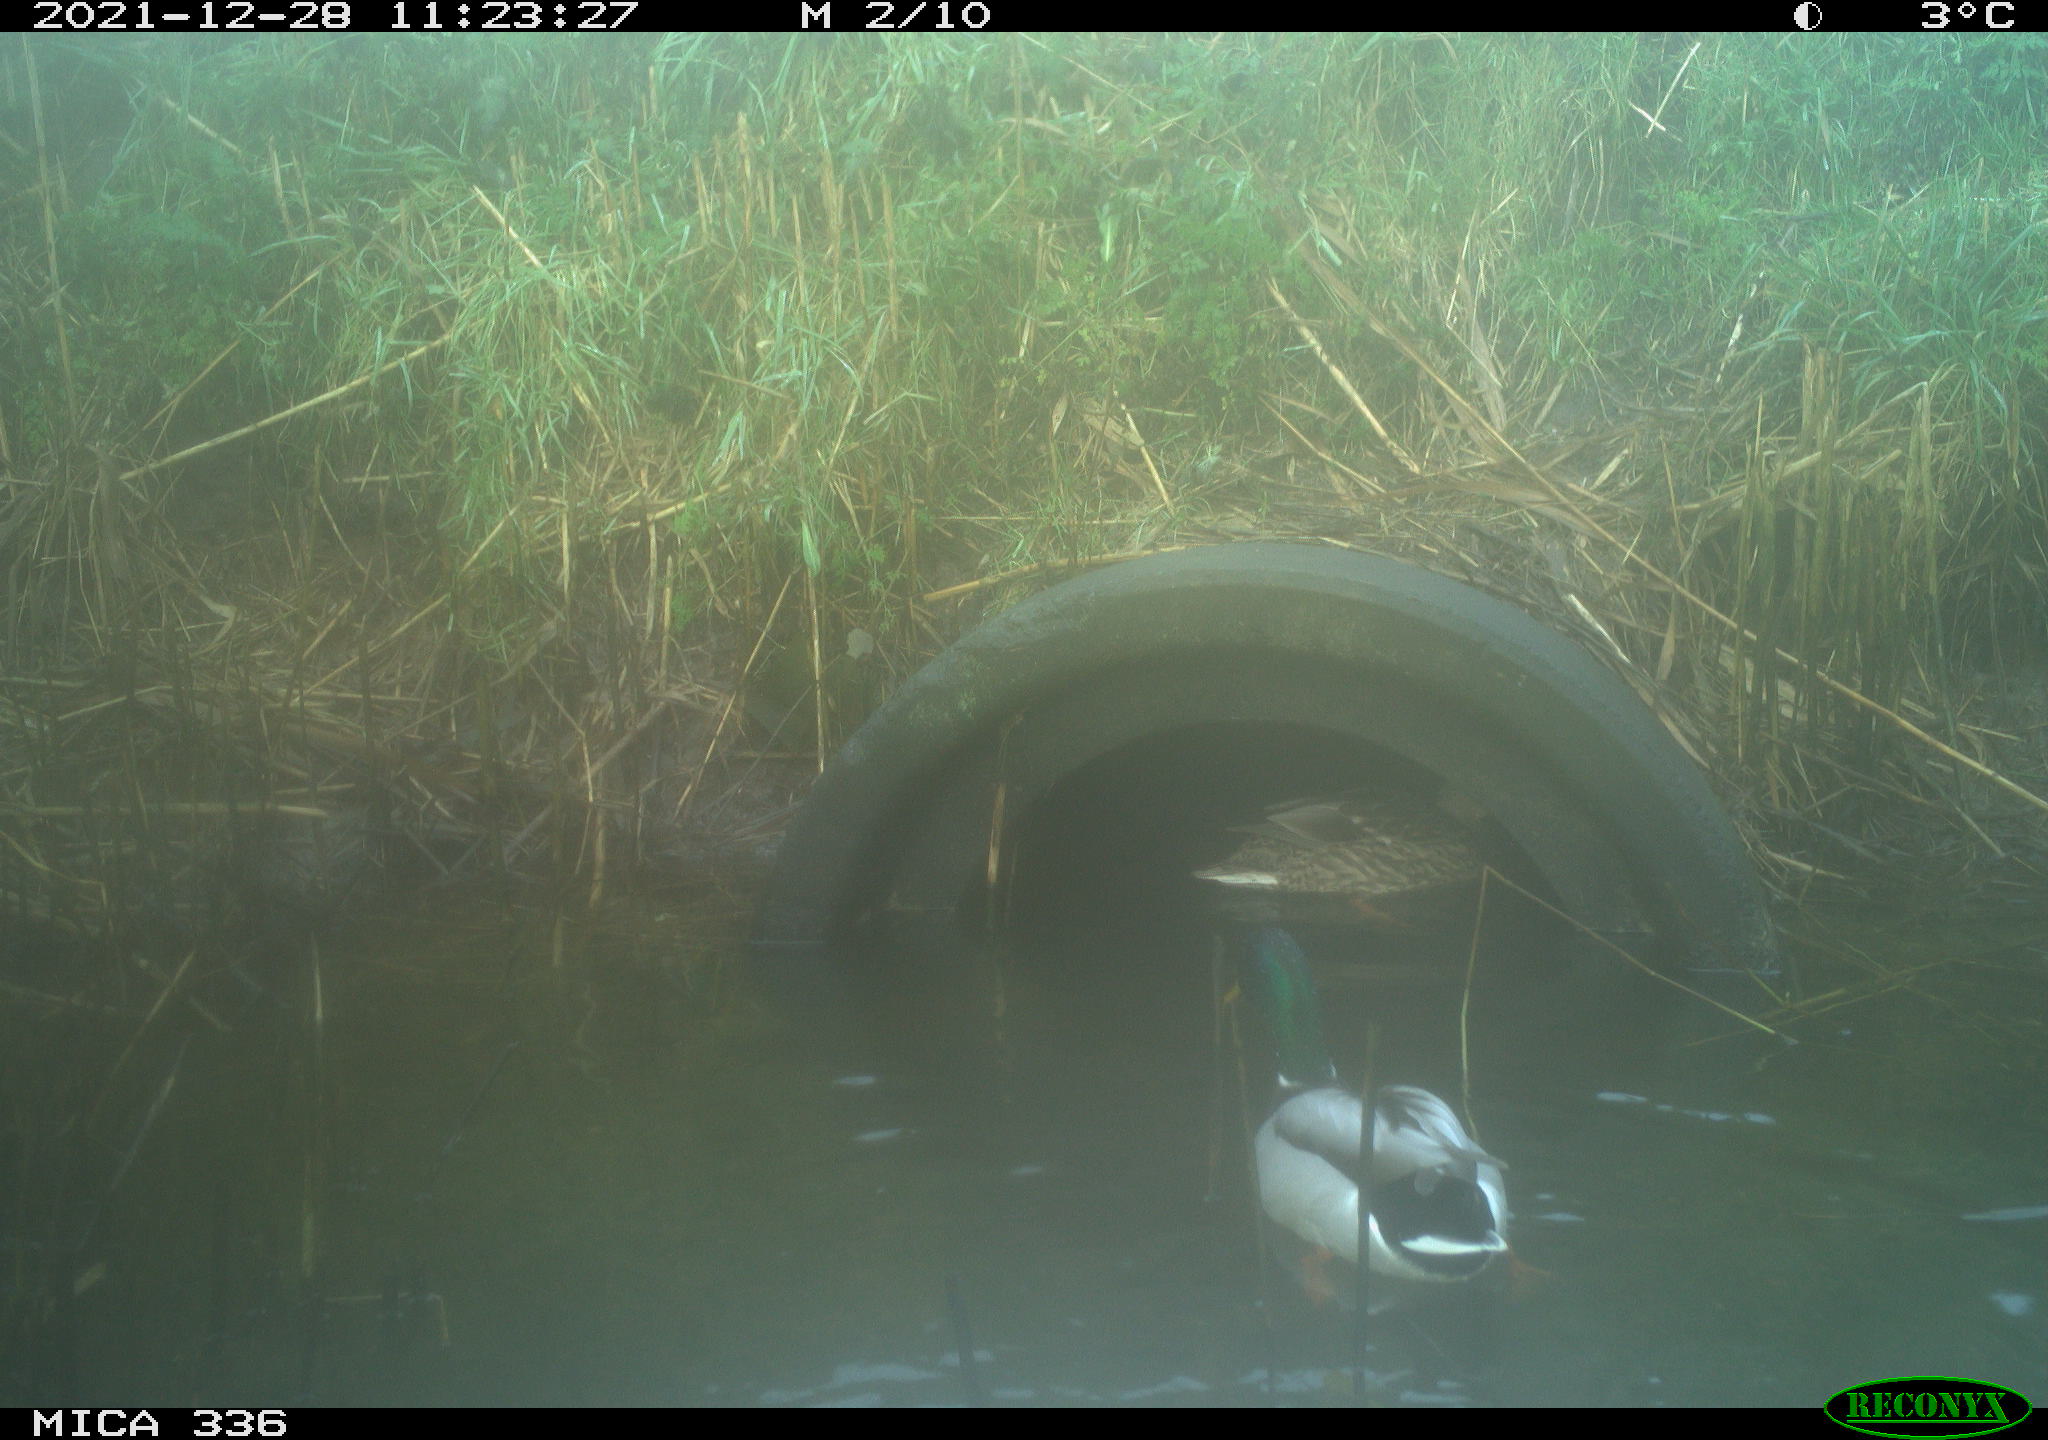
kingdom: Animalia
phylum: Chordata
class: Aves
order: Anseriformes
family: Anatidae
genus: Anas
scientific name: Anas platyrhynchos
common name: Mallard
